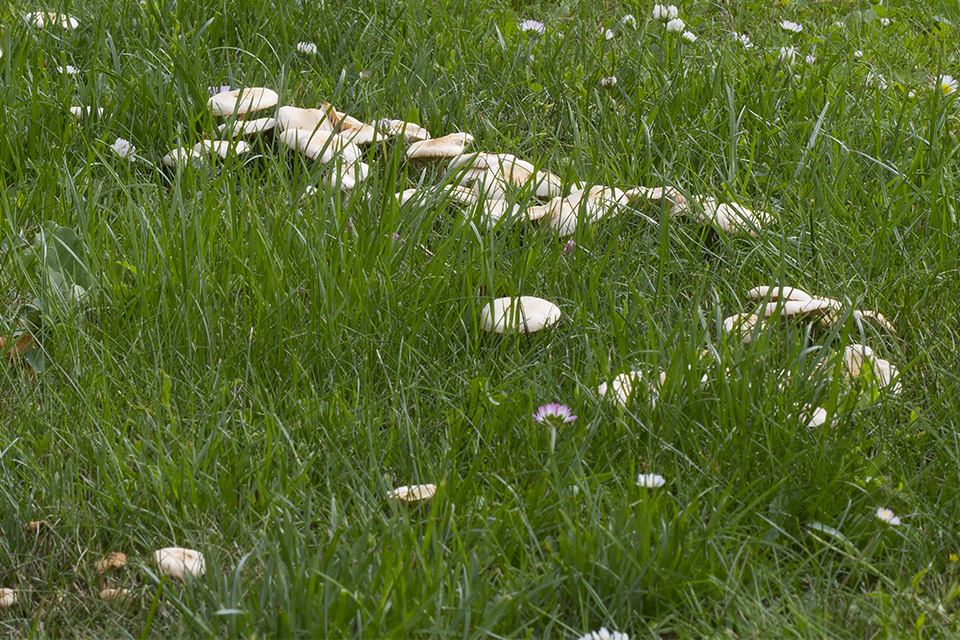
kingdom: Fungi
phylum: Basidiomycota
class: Agaricomycetes
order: Agaricales
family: Marasmiaceae
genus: Marasmius
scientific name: Marasmius oreades
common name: elledans-bruskhat
